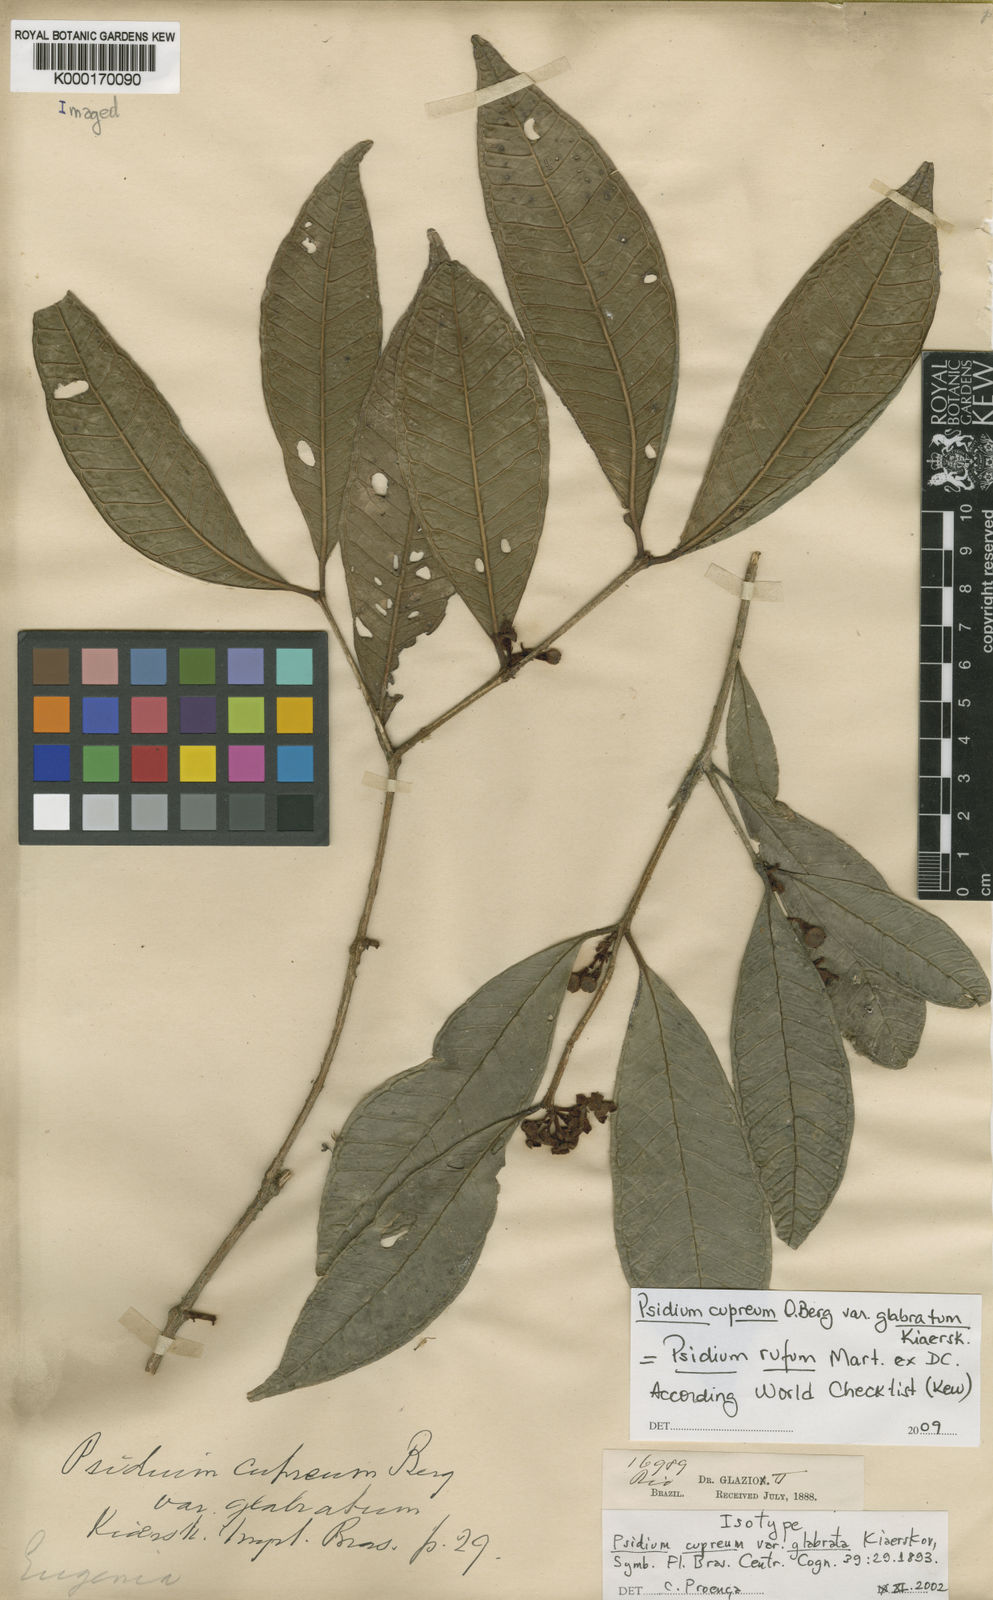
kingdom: Plantae
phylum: Tracheophyta
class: Magnoliopsida
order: Myrtales
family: Myrtaceae
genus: Psidium
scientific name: Psidium rufum
